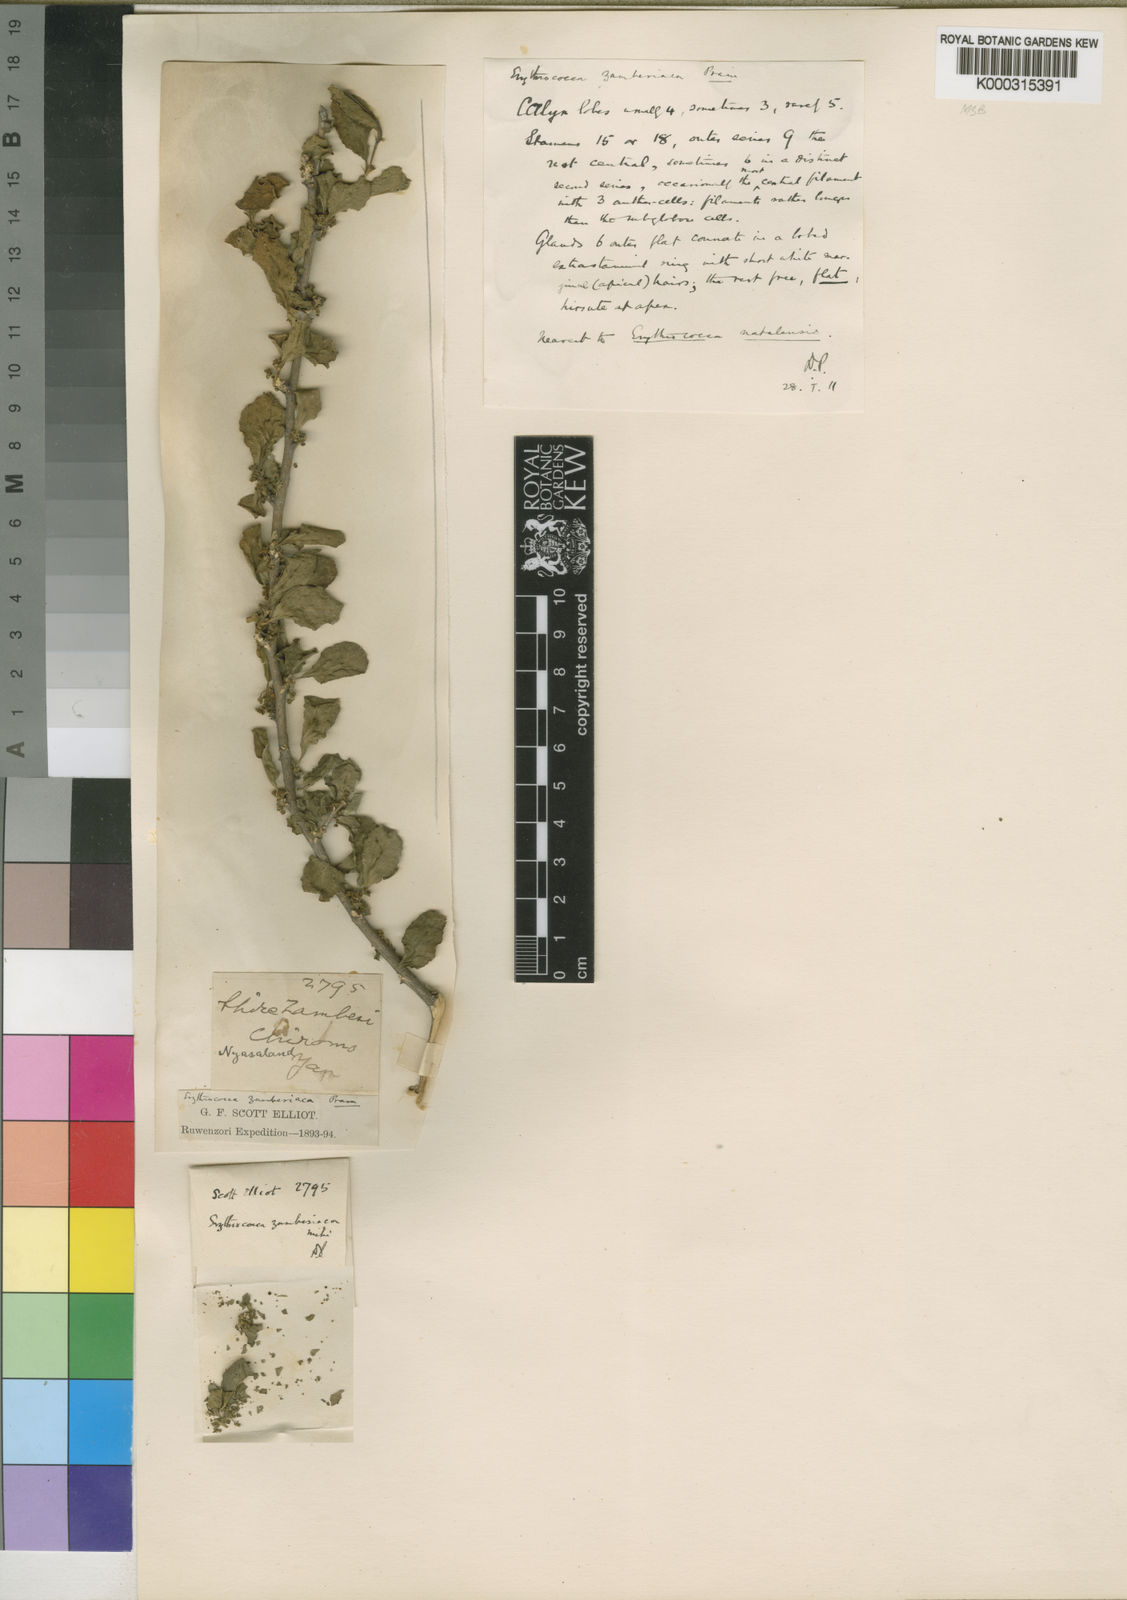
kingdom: Plantae
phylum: Tracheophyta
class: Magnoliopsida
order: Malpighiales
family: Euphorbiaceae
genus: Erythrococca
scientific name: Erythrococca zambesiaca
